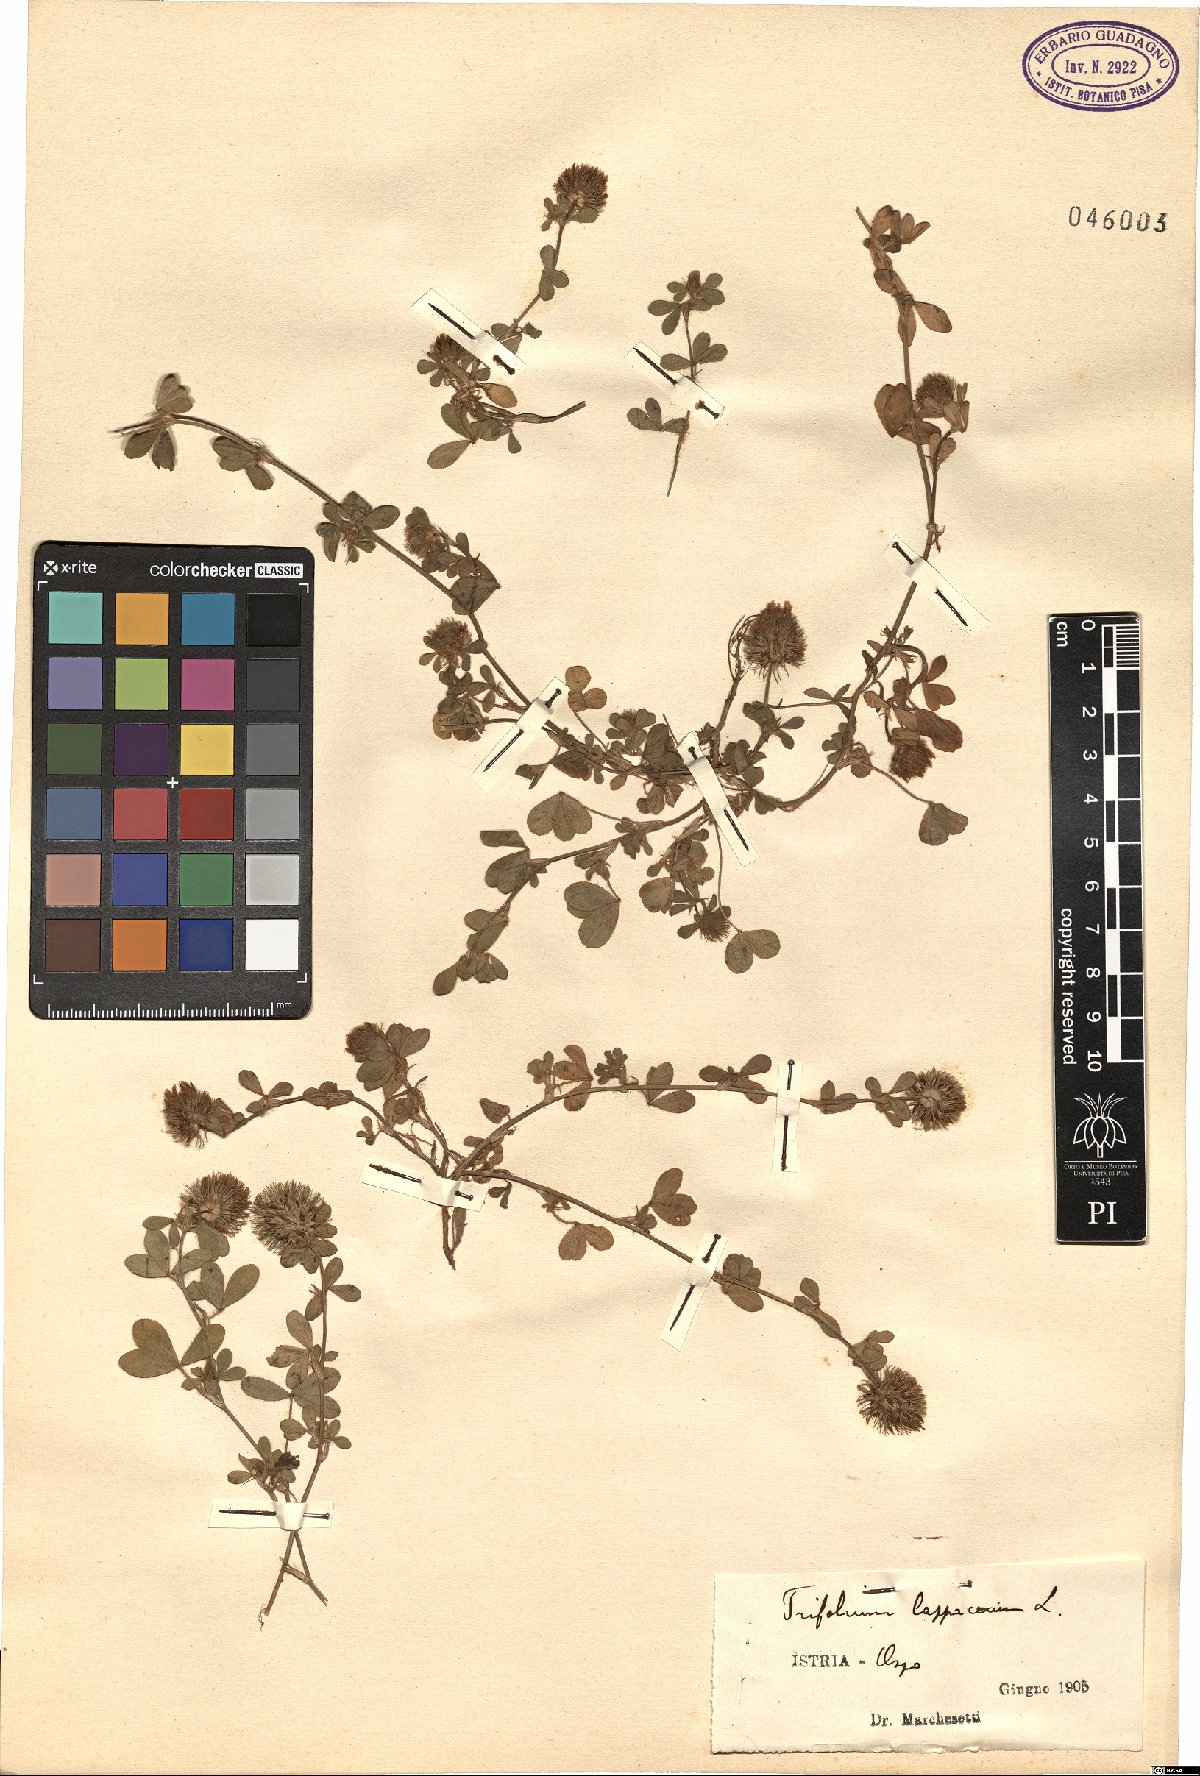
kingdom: Plantae
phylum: Tracheophyta
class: Magnoliopsida
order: Fabales
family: Fabaceae
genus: Trifolium
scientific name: Trifolium lappaceum
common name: Bur clover
